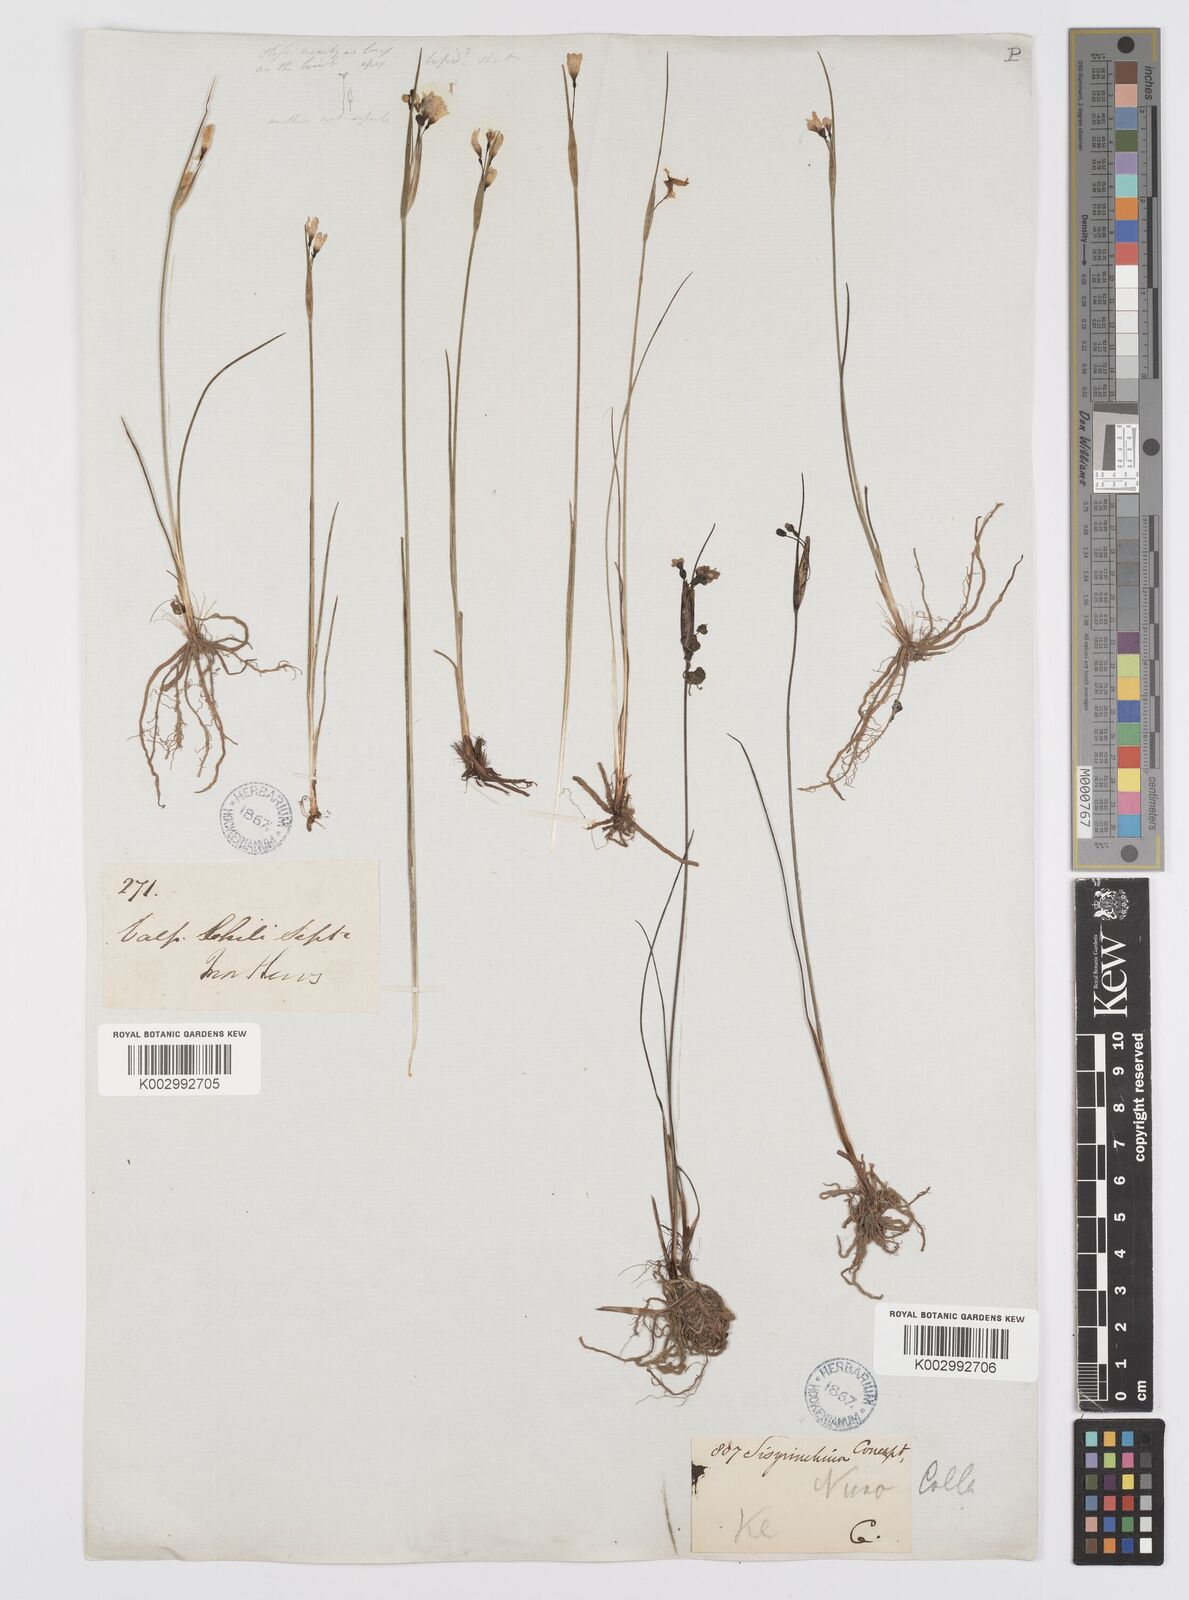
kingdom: Plantae
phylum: Tracheophyta
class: Liliopsida
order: Asparagales
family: Iridaceae
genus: Olsynium
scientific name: Olsynium scirpoideum
